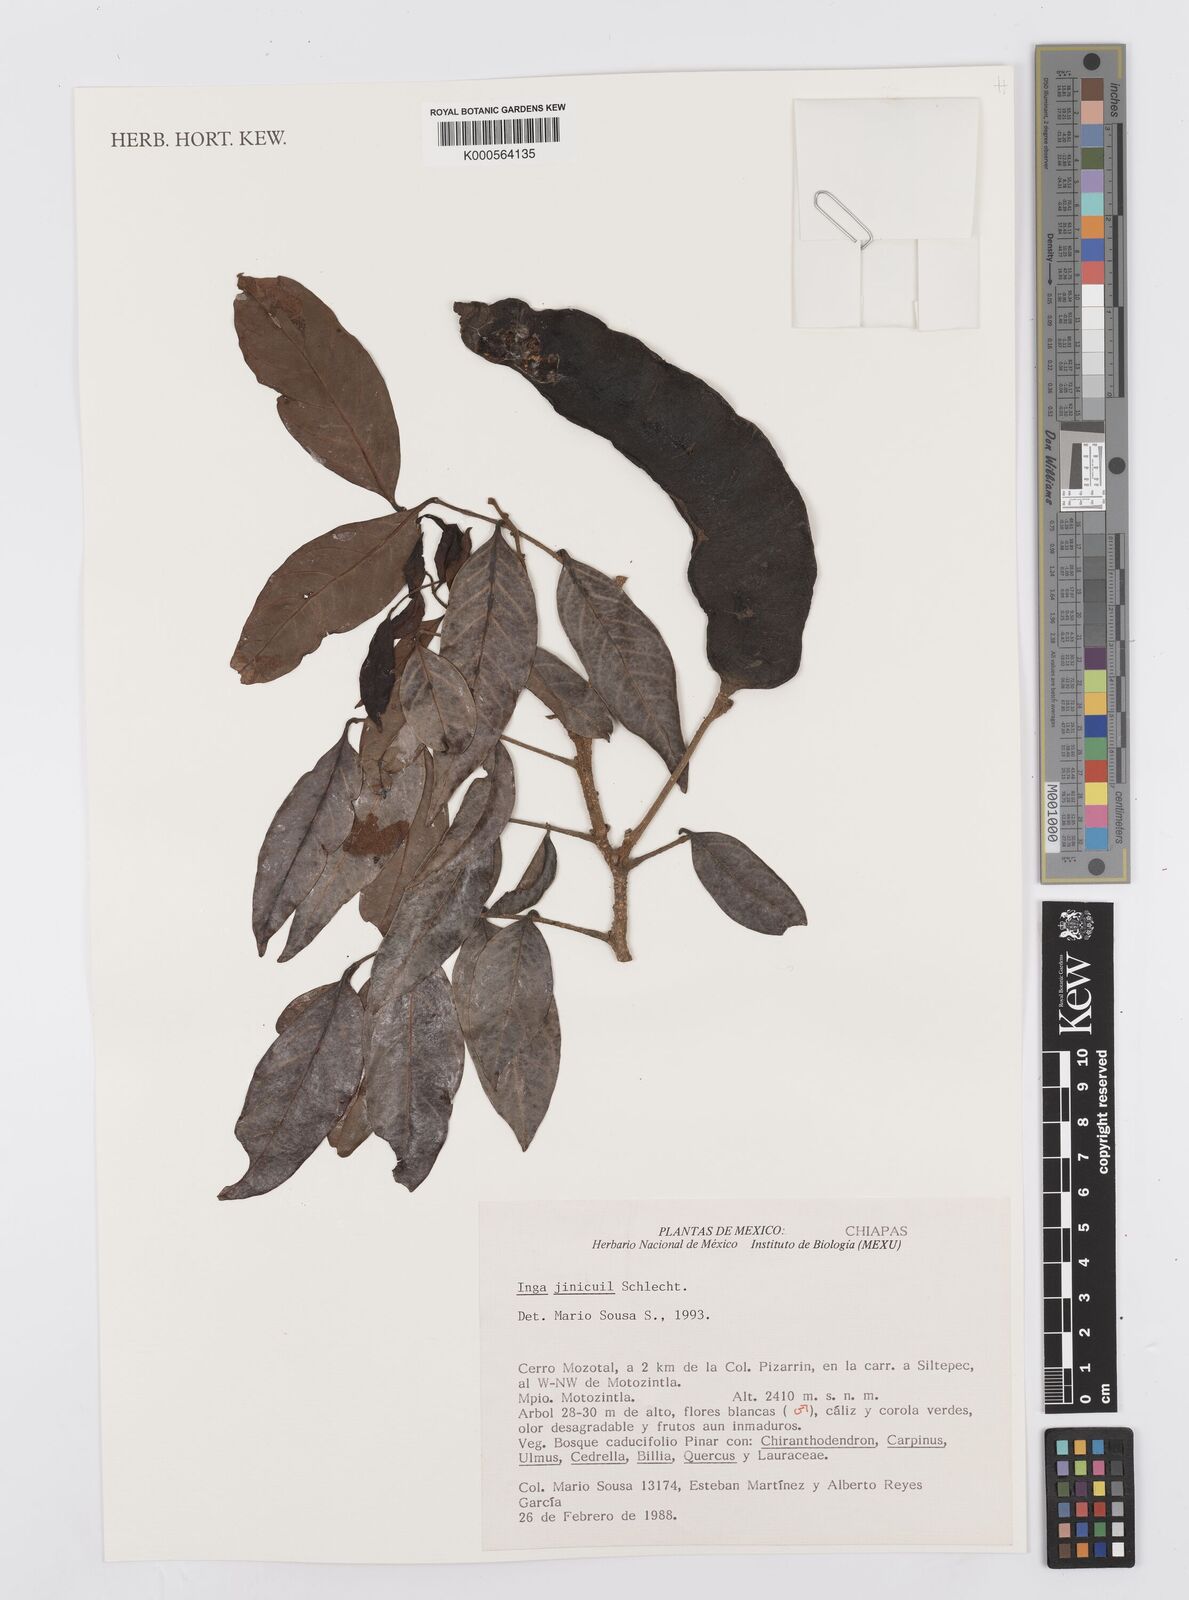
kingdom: Plantae
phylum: Tracheophyta
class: Magnoliopsida
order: Fabales
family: Fabaceae
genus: Inga
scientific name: Inga inicuil
